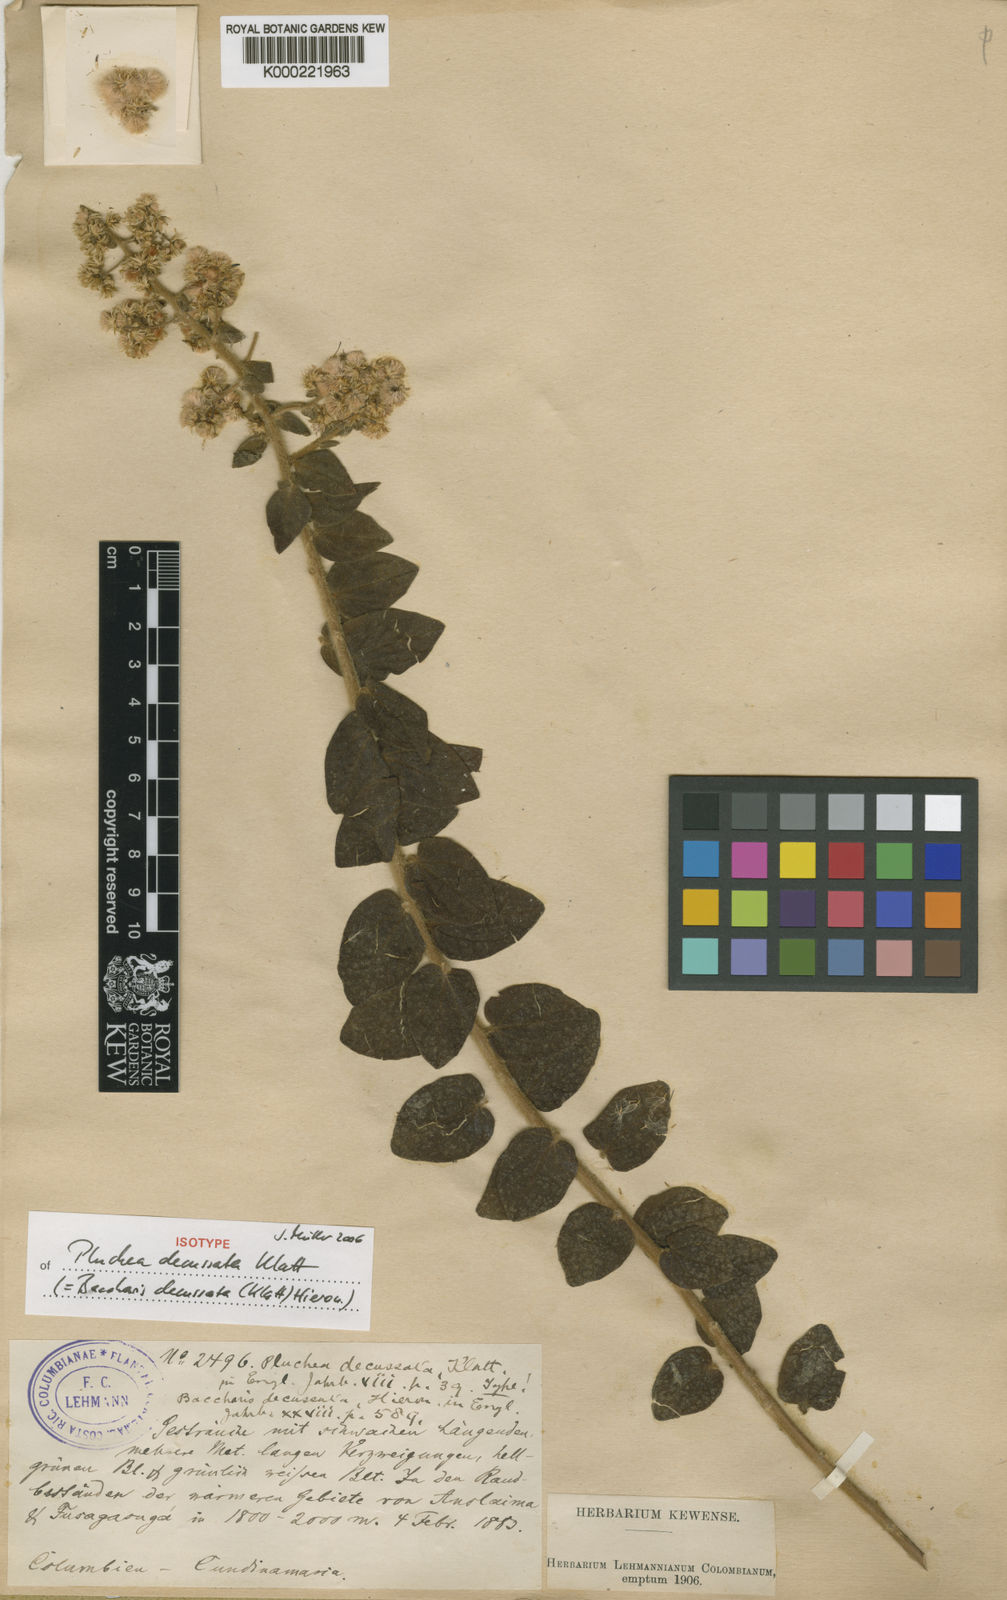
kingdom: Plantae
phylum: Tracheophyta
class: Magnoliopsida
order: Asterales
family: Asteraceae
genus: Baccharis
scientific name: Baccharis decussata
